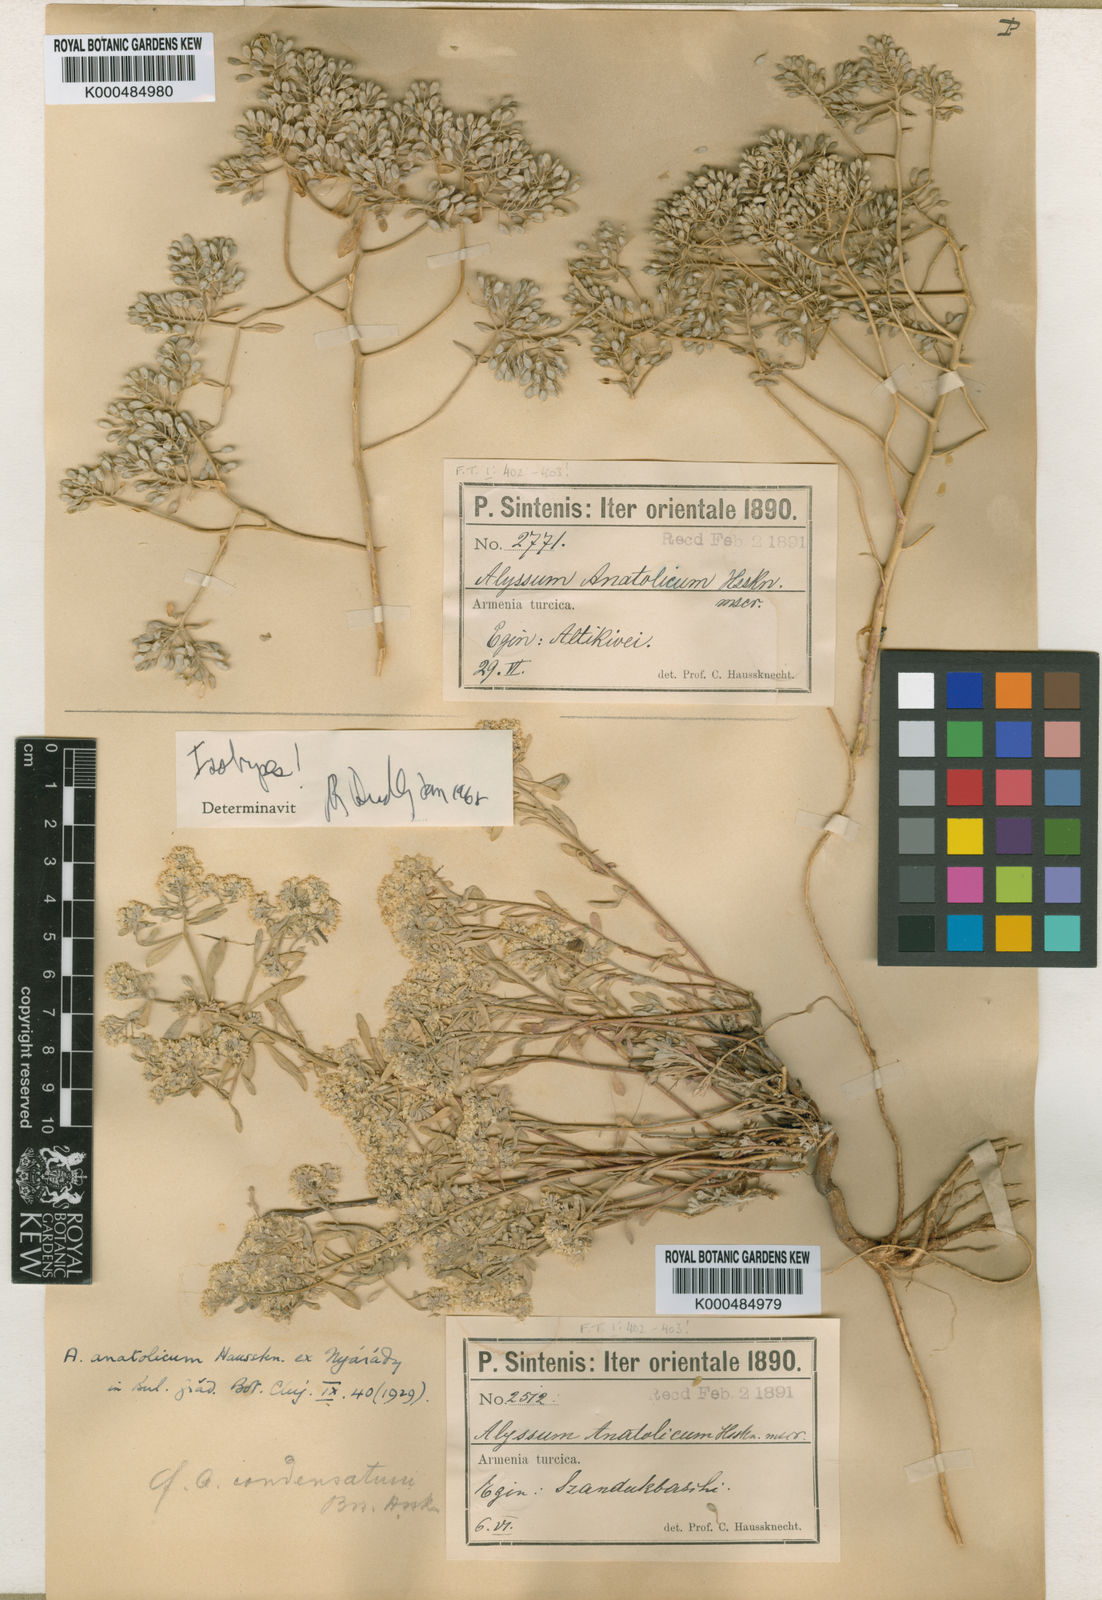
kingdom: Plantae
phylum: Tracheophyta
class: Magnoliopsida
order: Brassicales
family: Brassicaceae
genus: Odontarrhena
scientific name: Odontarrhena anatolica
